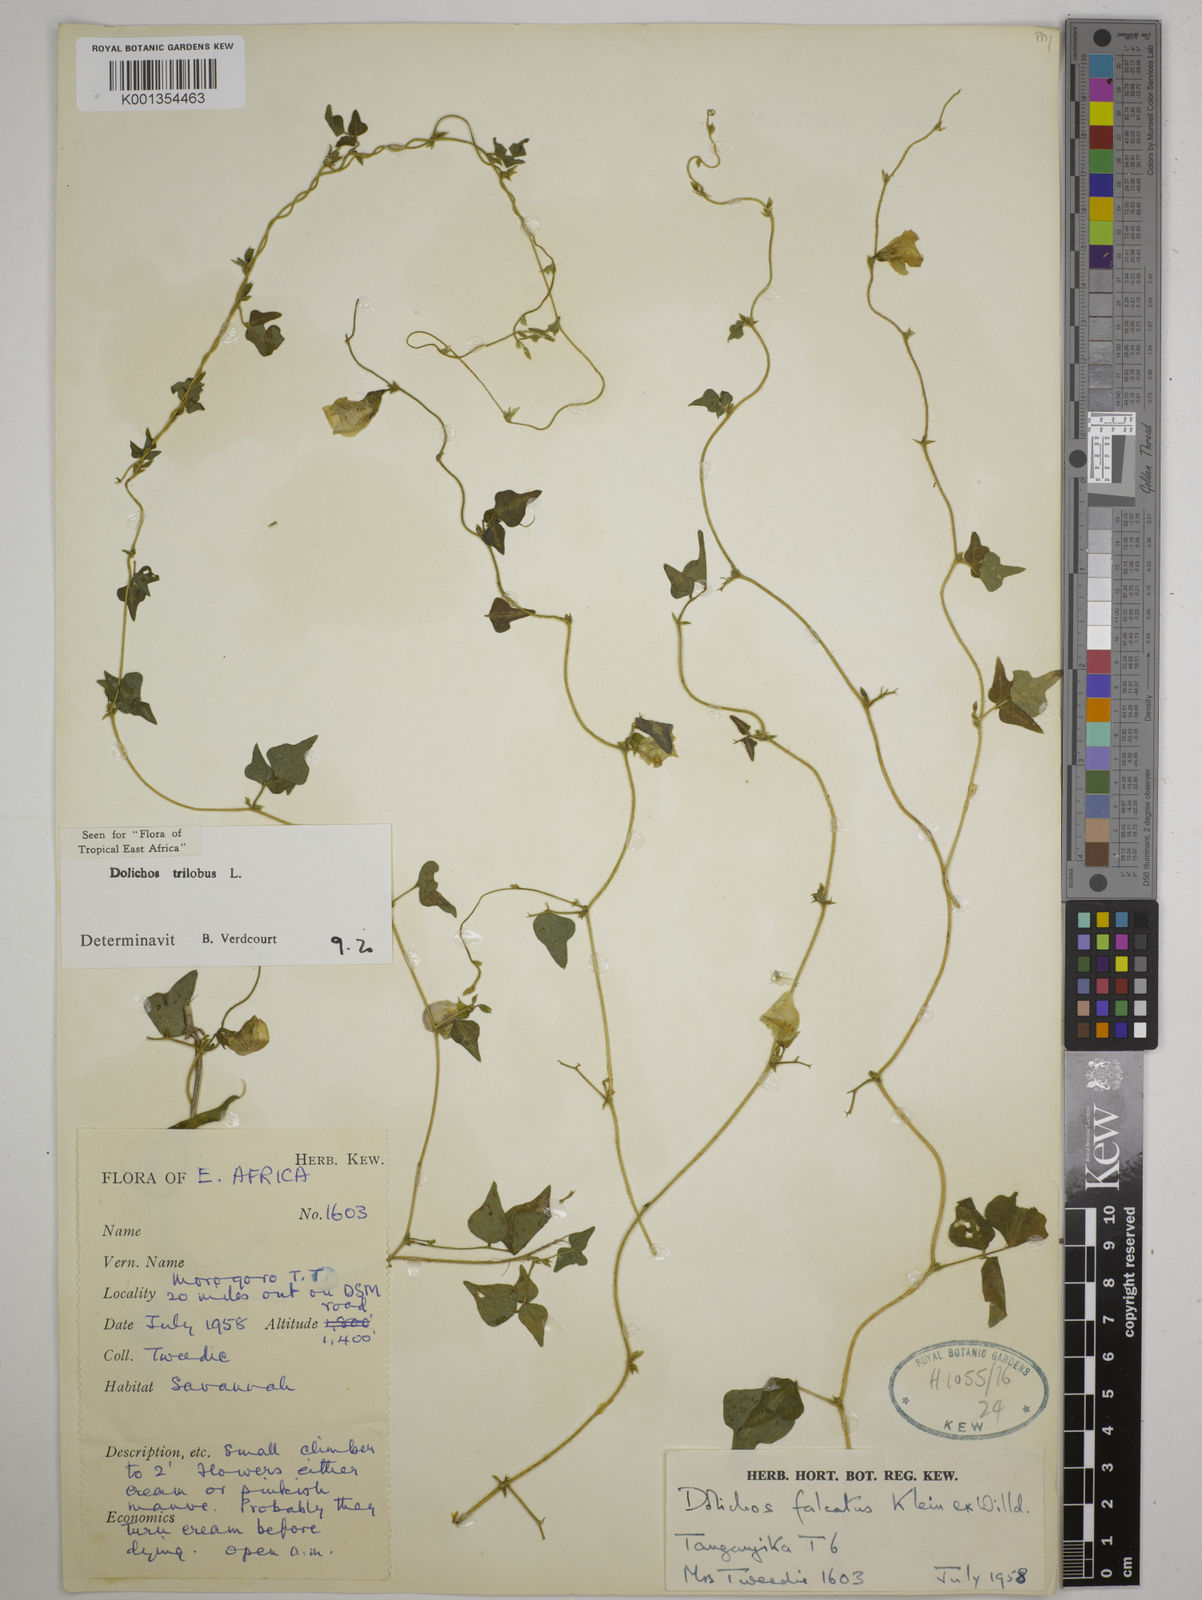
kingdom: Plantae
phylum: Tracheophyta
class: Magnoliopsida
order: Fabales
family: Fabaceae
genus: Dolichos
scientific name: Dolichos
